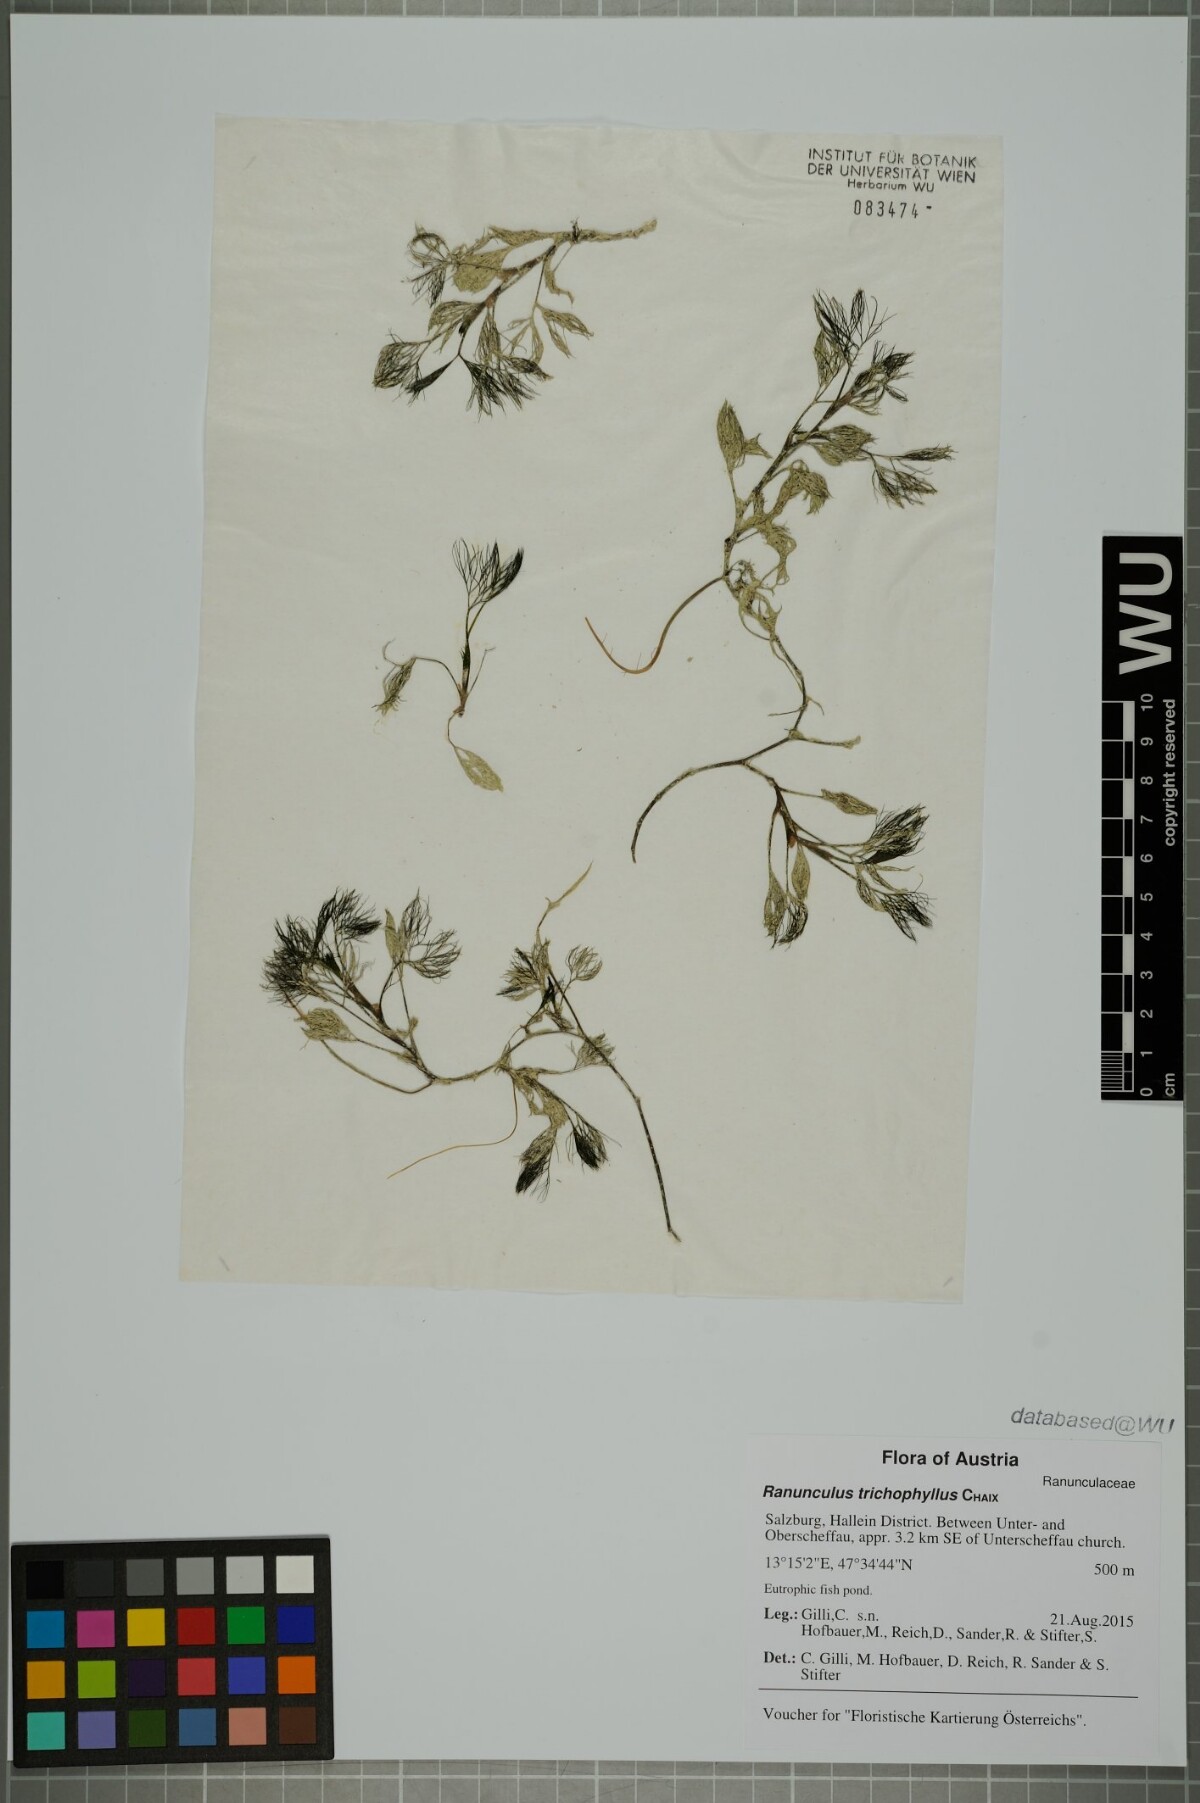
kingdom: Plantae
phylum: Tracheophyta
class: Magnoliopsida
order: Ranunculales
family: Ranunculaceae
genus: Ranunculus
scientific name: Ranunculus trichophyllus
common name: Thread-leaved water-crowfoot
